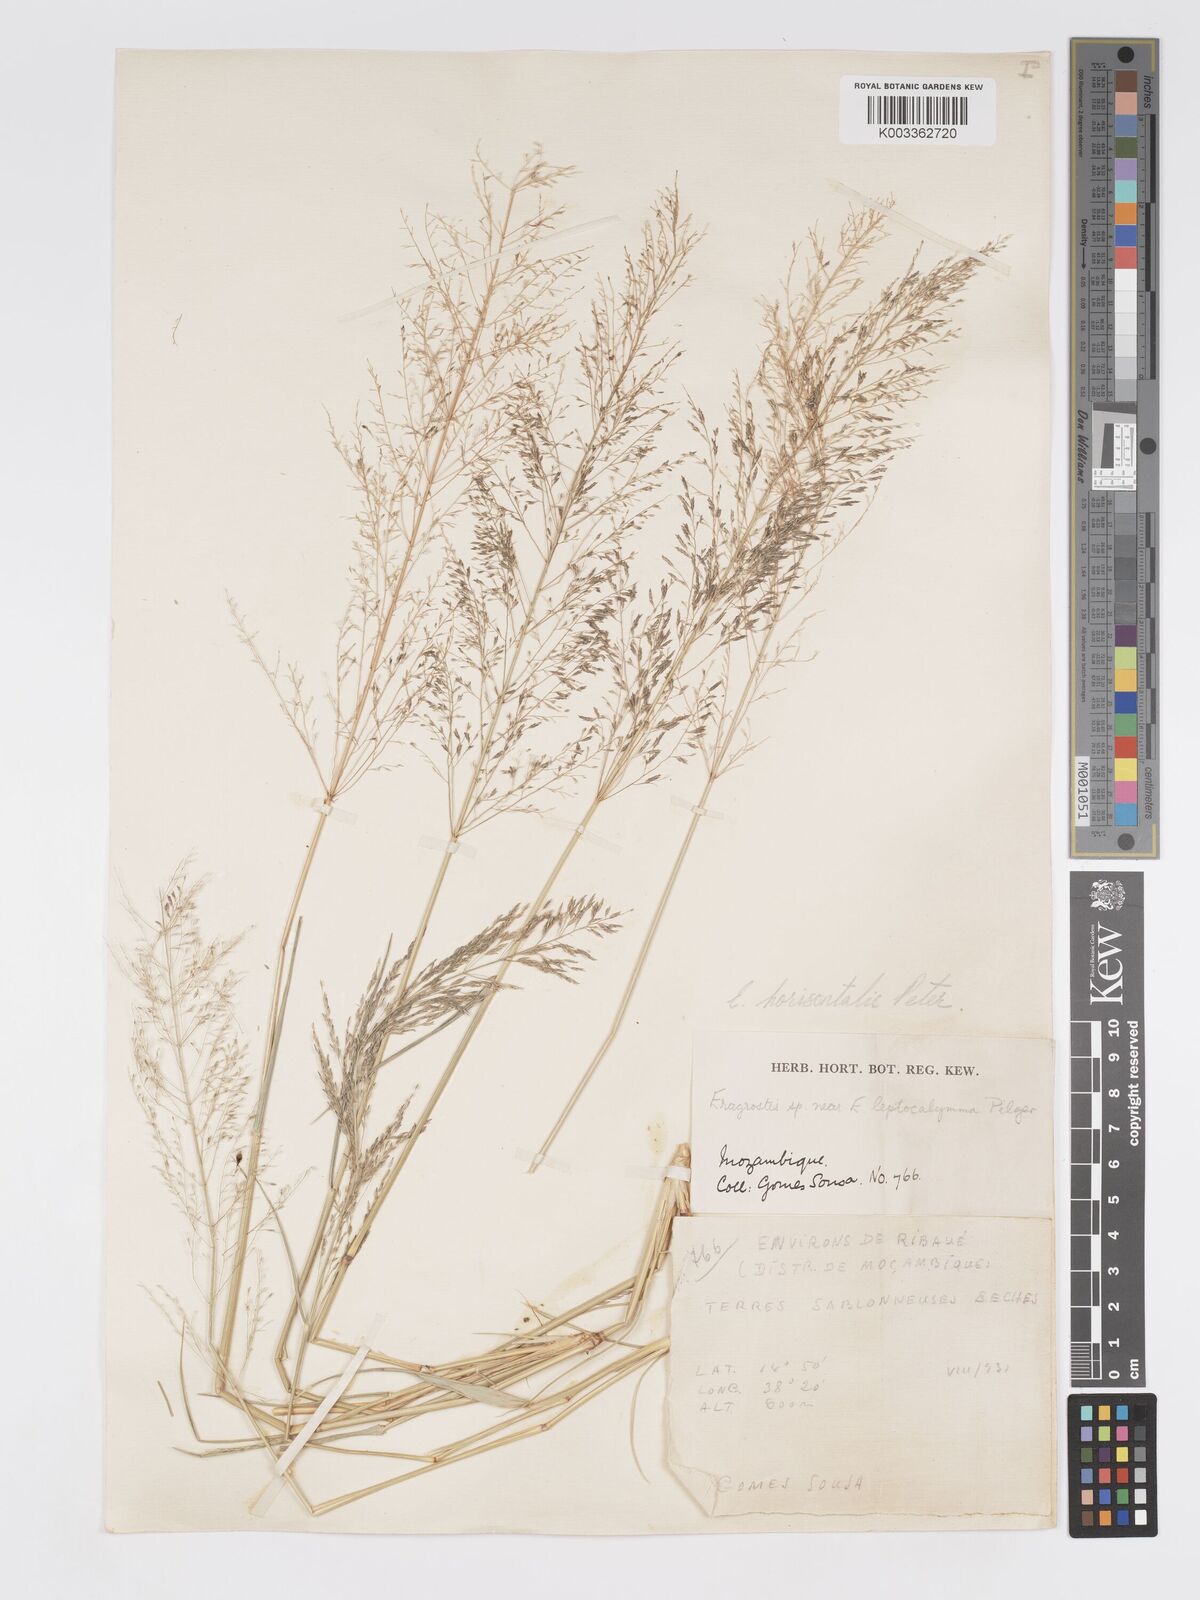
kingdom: Plantae
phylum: Tracheophyta
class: Liliopsida
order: Poales
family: Poaceae
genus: Eragrostis
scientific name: Eragrostis cylindriflora
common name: Cylinderflower lovegrass
